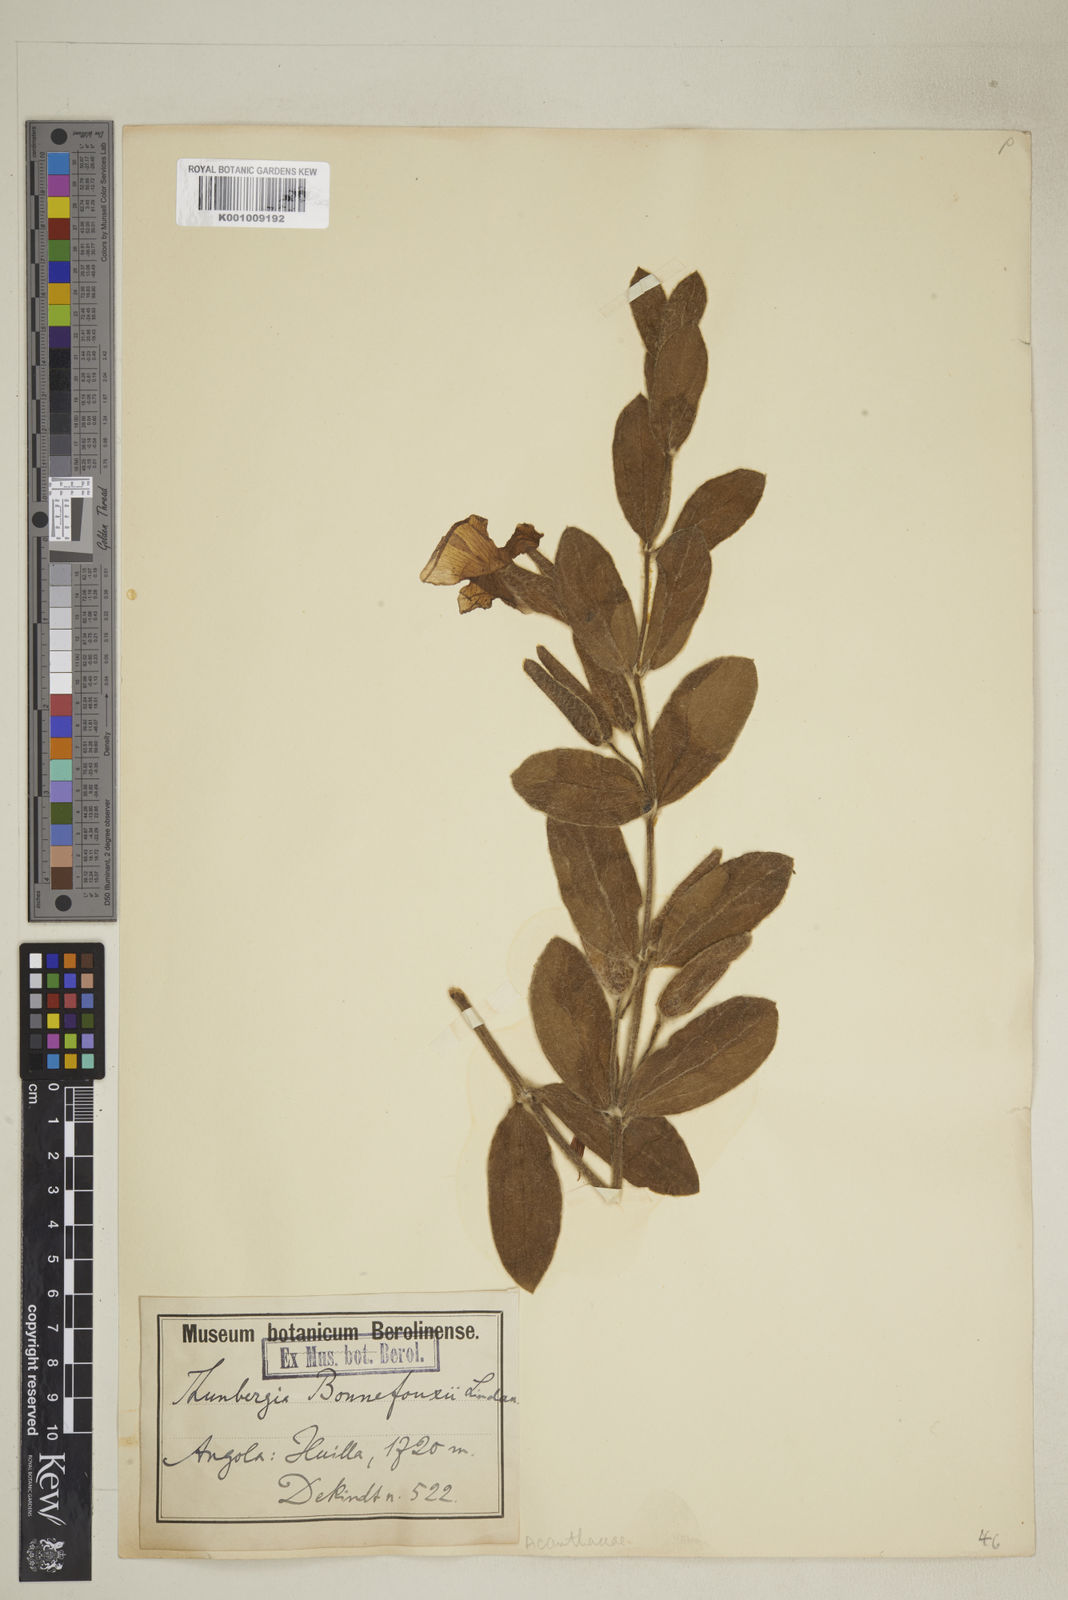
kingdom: Plantae
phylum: Tracheophyta
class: Magnoliopsida
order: Lamiales
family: Acanthaceae
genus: Thunbergia
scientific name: Thunbergia angolensis
